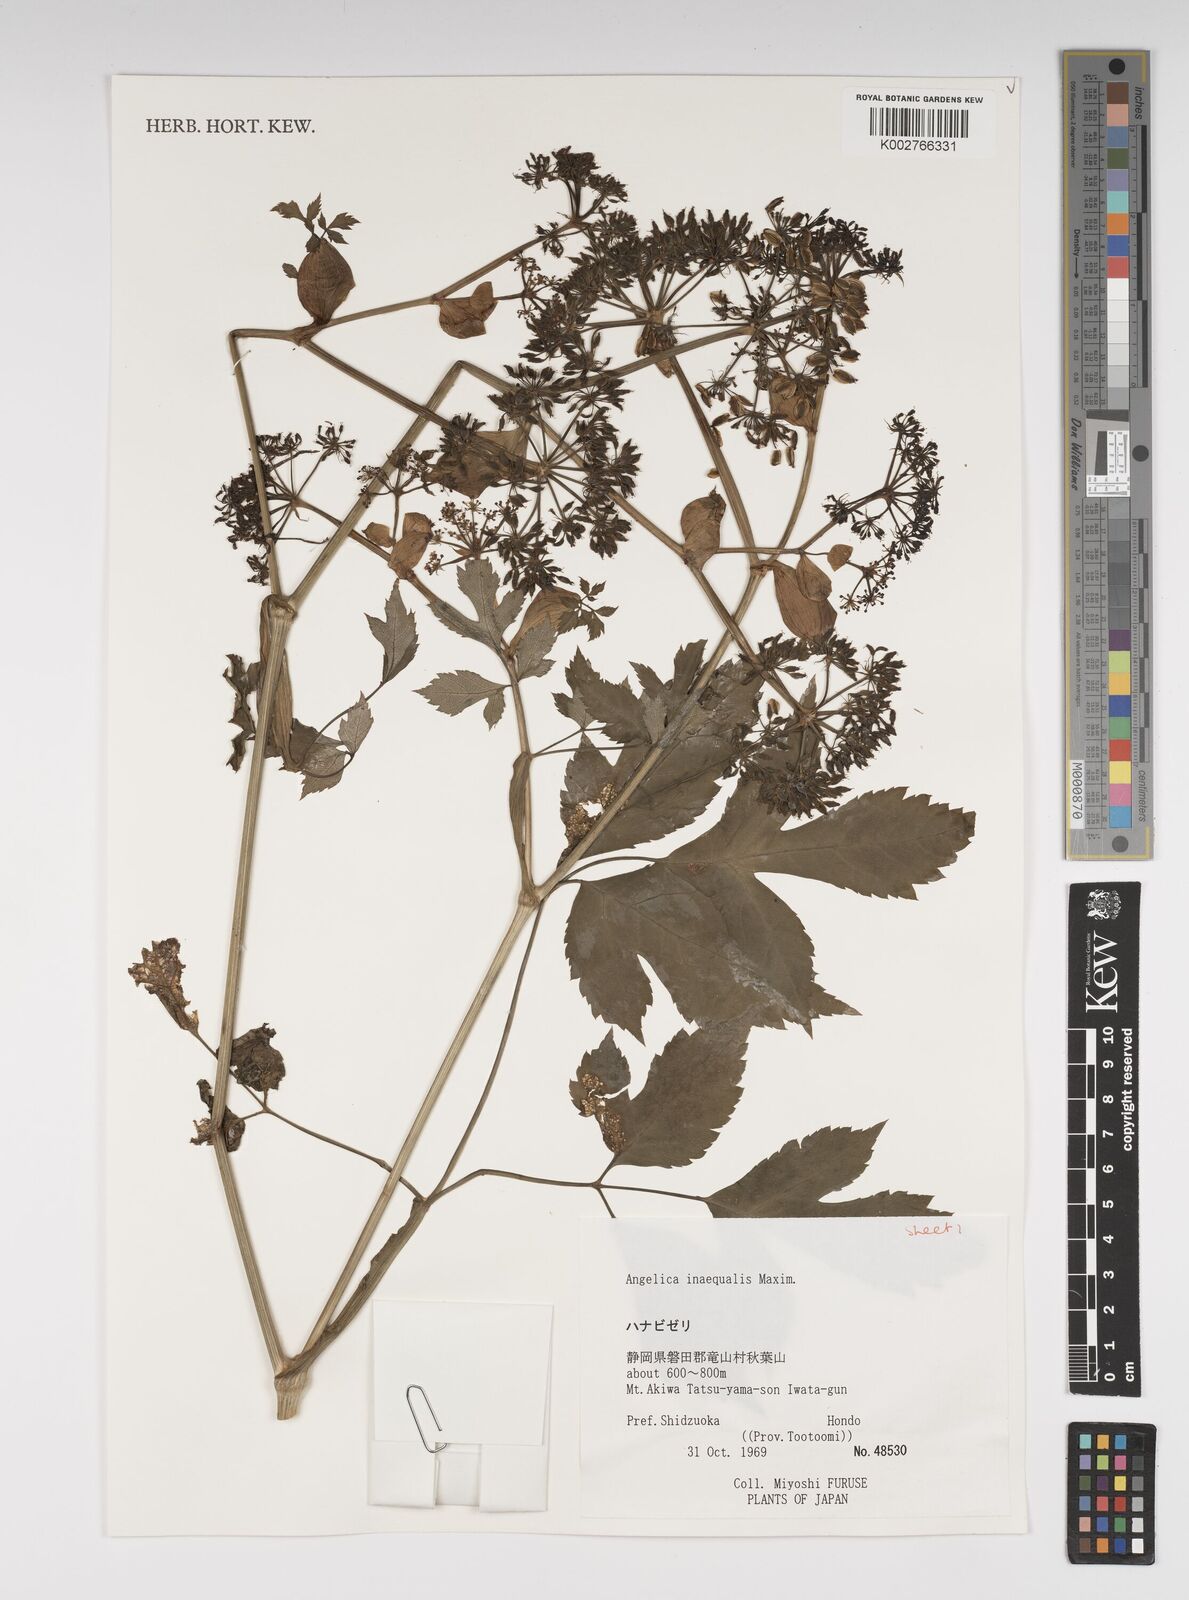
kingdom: Plantae
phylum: Tracheophyta
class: Magnoliopsida
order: Apiales
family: Apiaceae
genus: Angelica
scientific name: Angelica inaequalis
